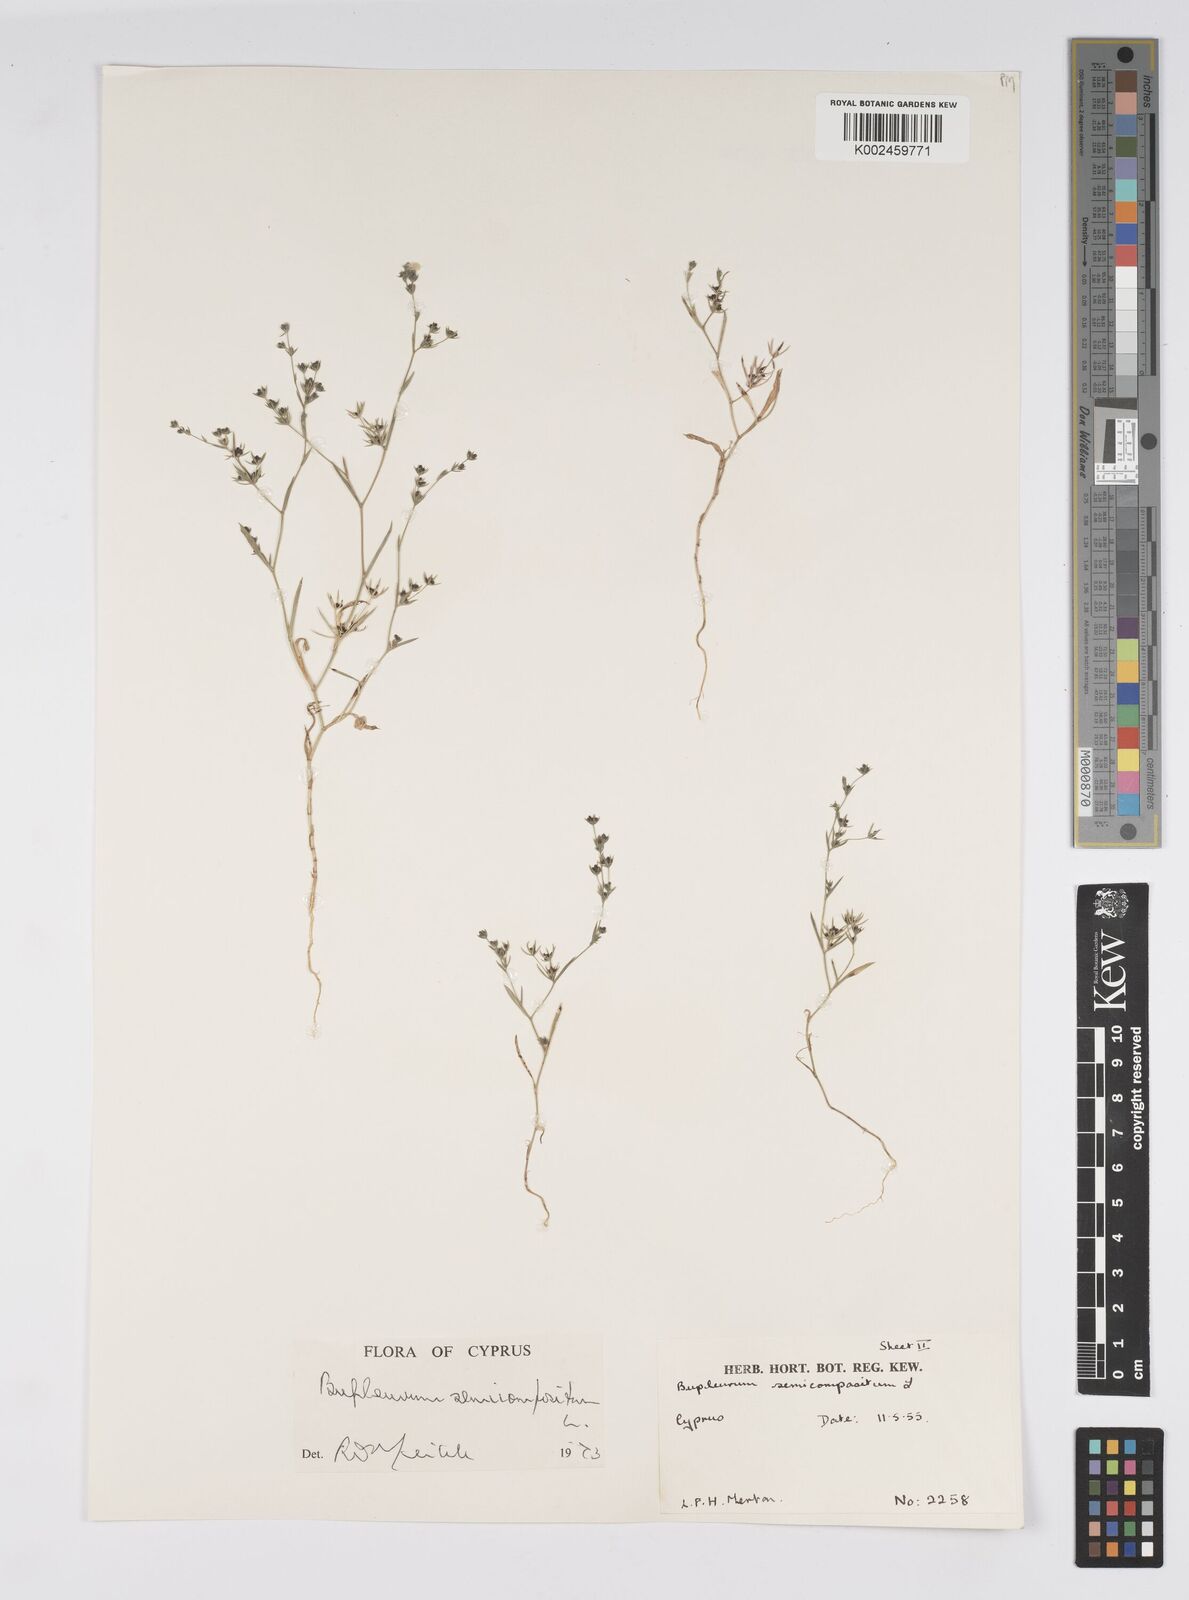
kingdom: Plantae
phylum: Tracheophyta
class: Magnoliopsida
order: Apiales
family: Apiaceae
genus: Bupleurum
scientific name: Bupleurum semicompositum
